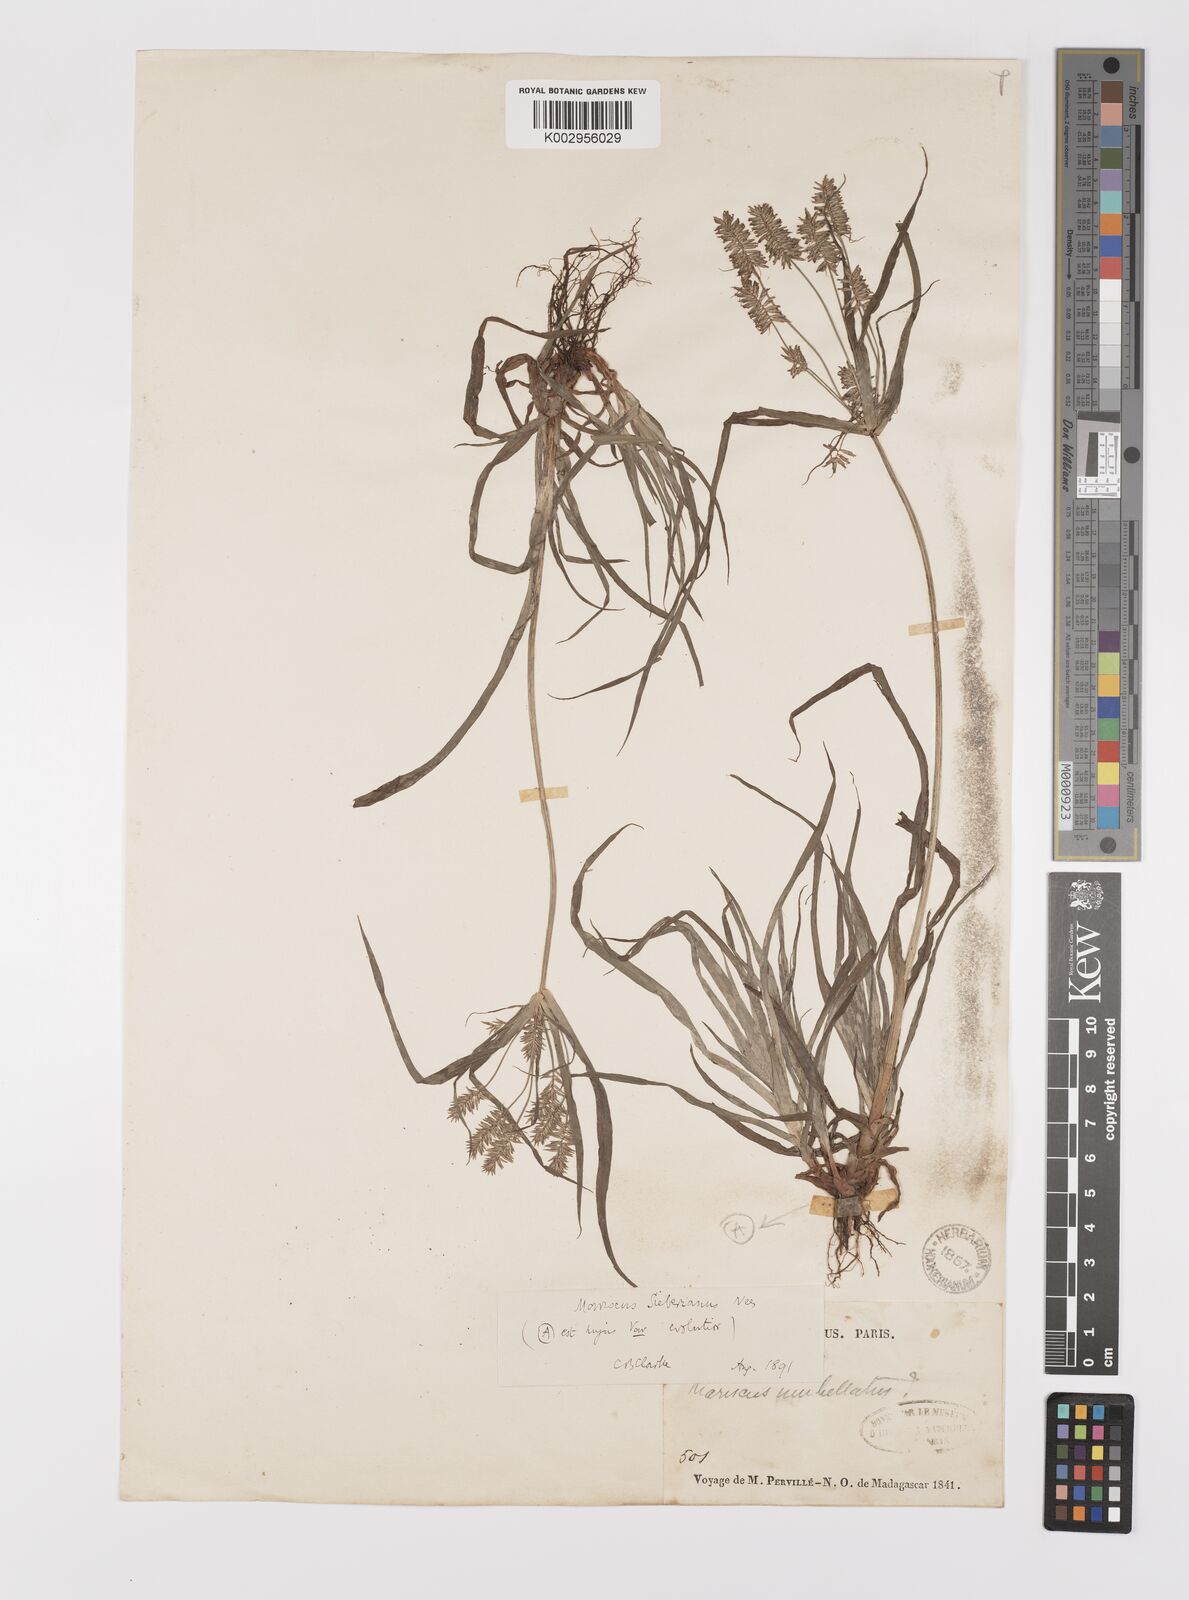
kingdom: Plantae
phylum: Tracheophyta
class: Liliopsida
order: Poales
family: Cyperaceae
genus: Cyperus
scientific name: Cyperus cyperoides
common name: Pacific island flat sedge
